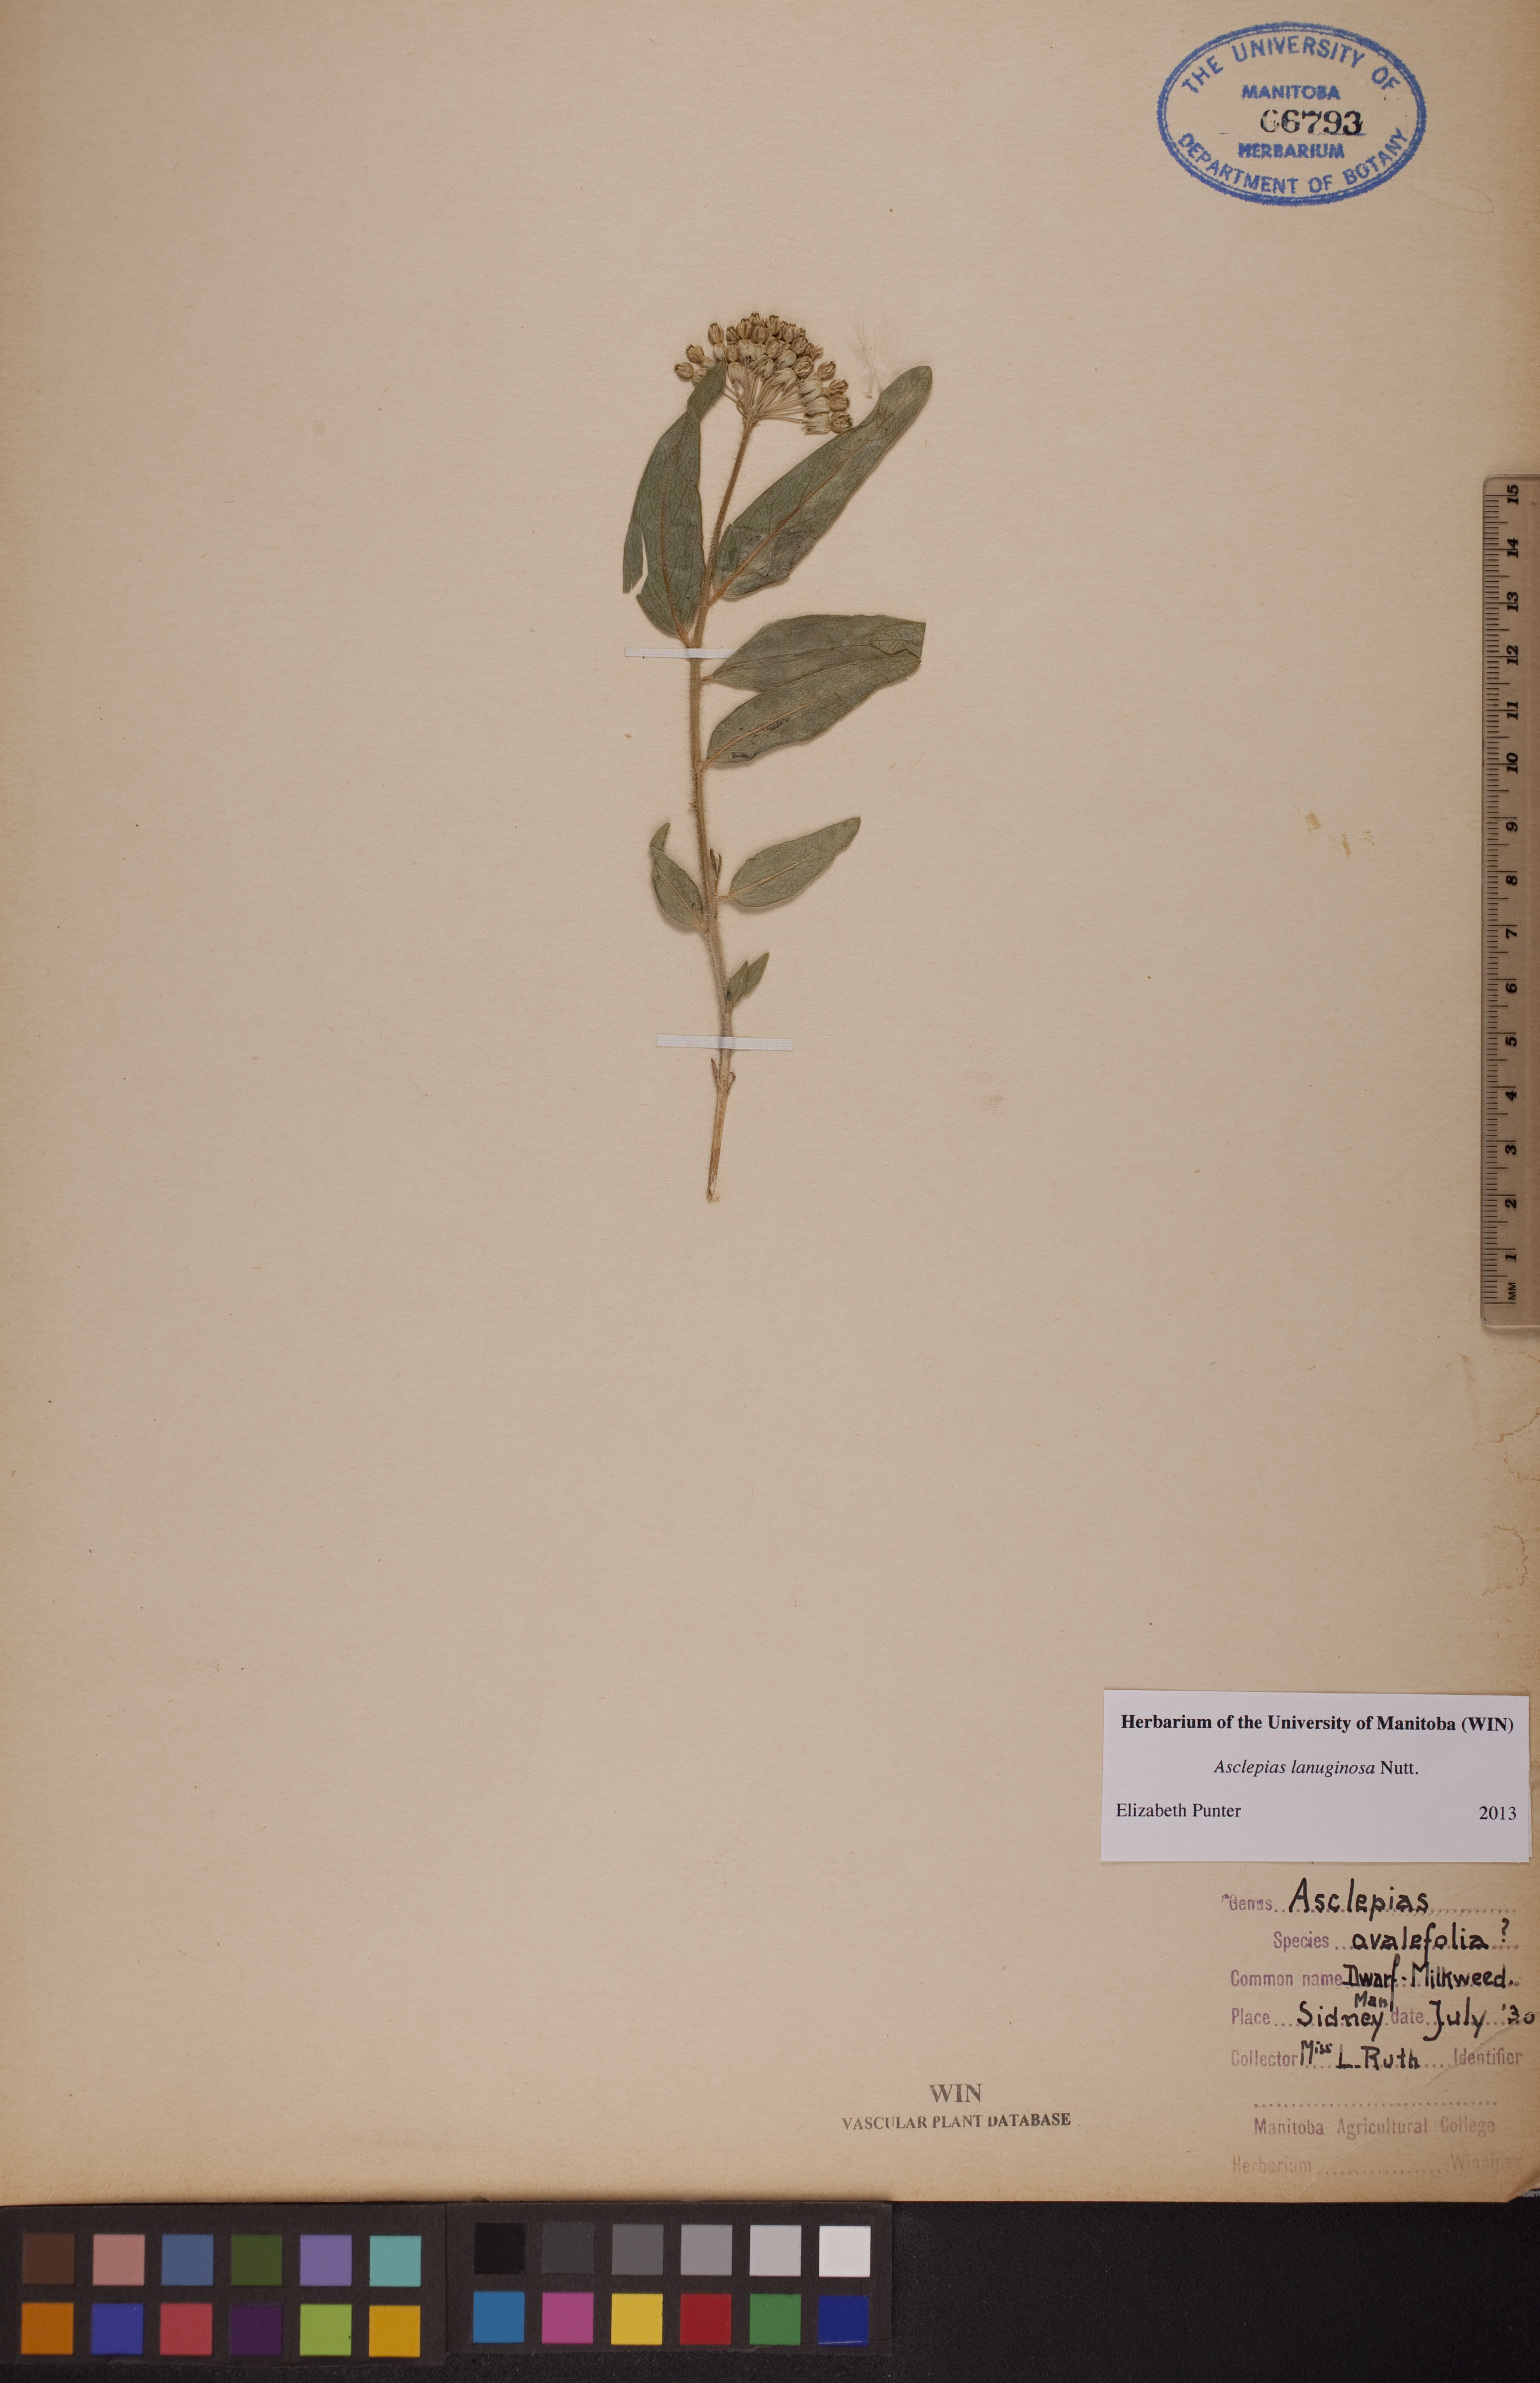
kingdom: Plantae
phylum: Tracheophyta
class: Magnoliopsida
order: Gentianales
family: Apocynaceae
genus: Asclepias
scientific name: Asclepias lanuginosa
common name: Side-cluster milkweed
